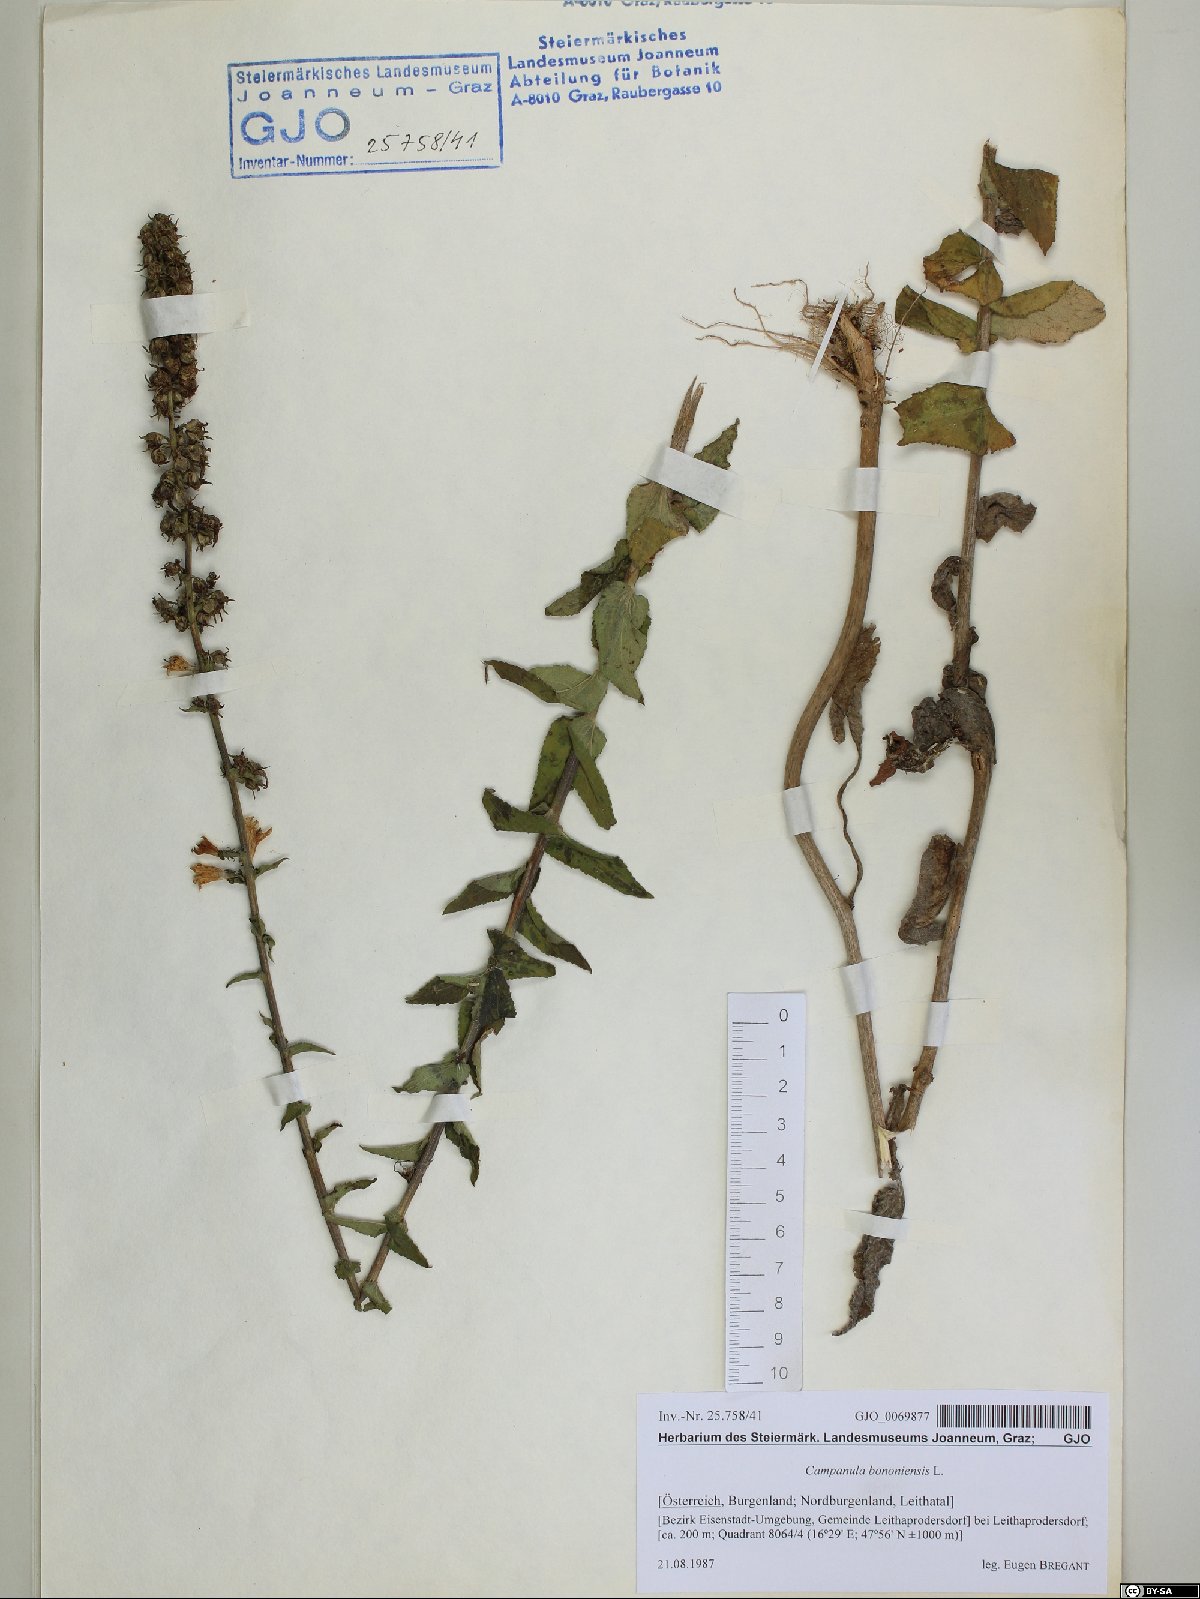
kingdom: Plantae
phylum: Tracheophyta
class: Magnoliopsida
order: Asterales
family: Campanulaceae
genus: Campanula
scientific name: Campanula bononiensis
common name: Pale bellflower
